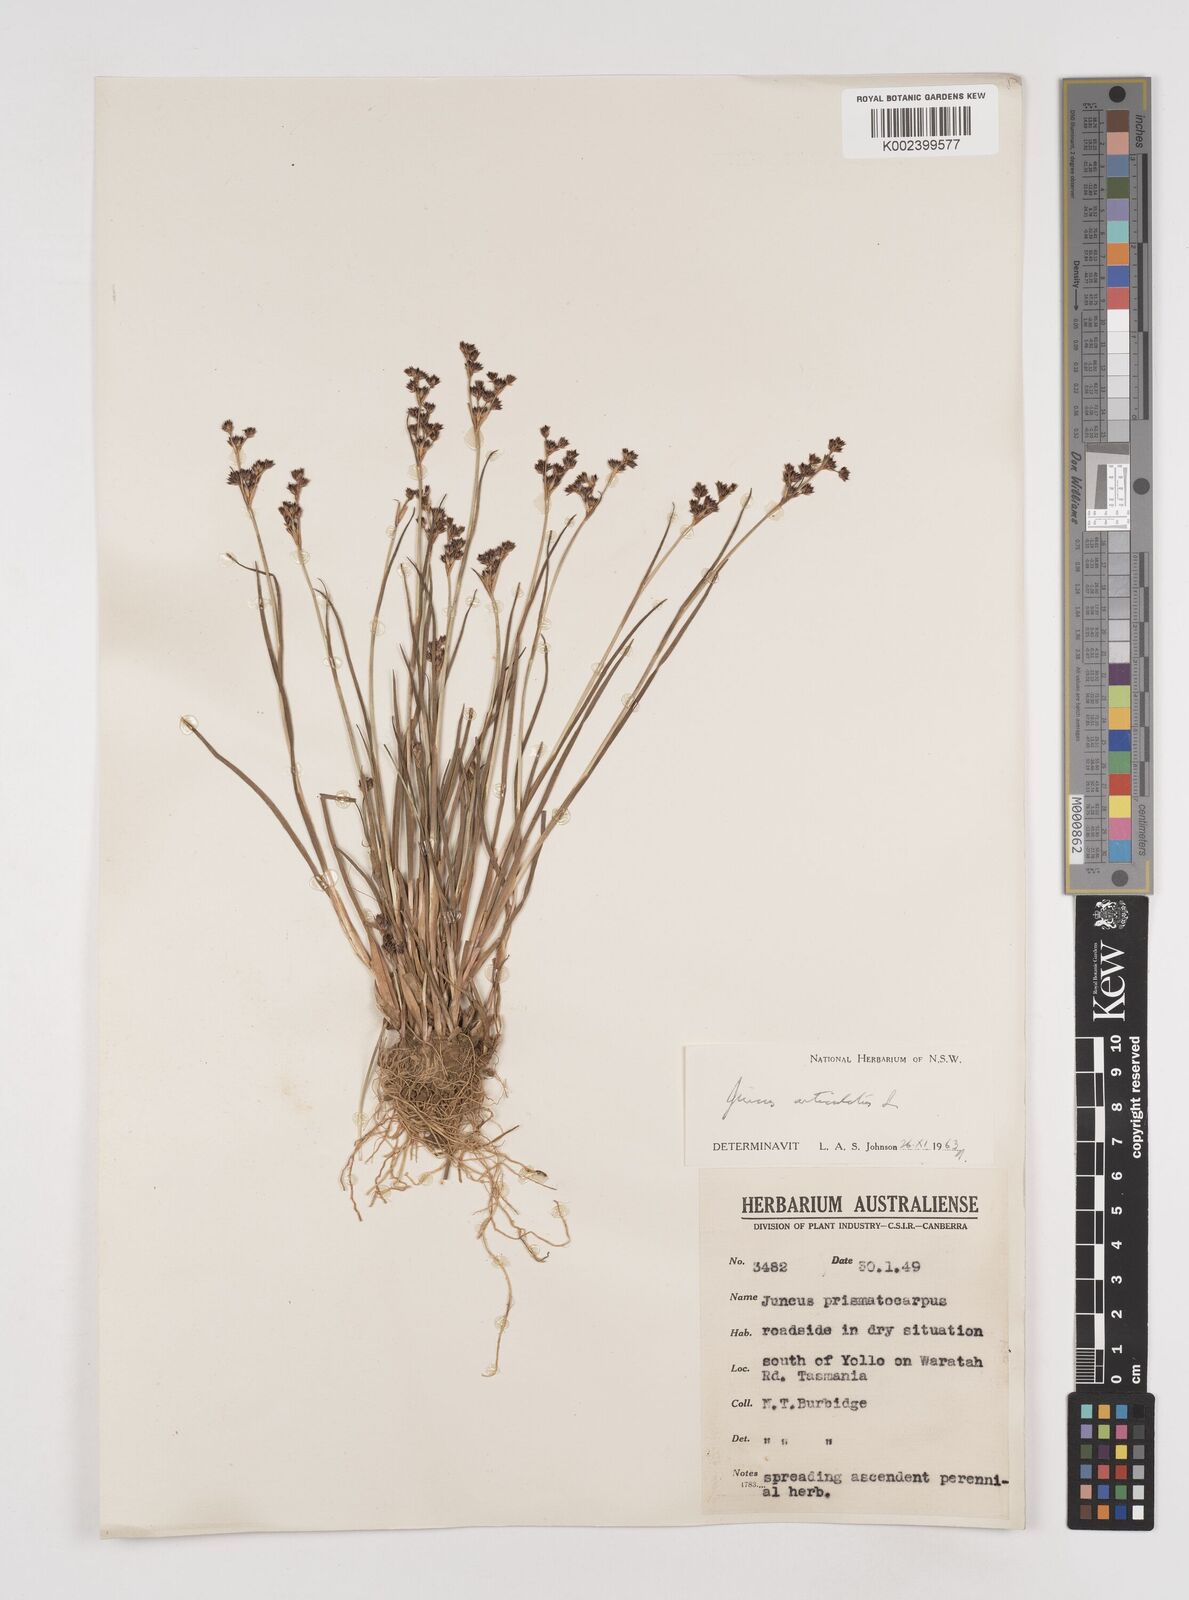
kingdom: Plantae
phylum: Tracheophyta
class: Liliopsida
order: Poales
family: Juncaceae
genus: Juncus
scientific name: Juncus articulatus
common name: Jointed rush
